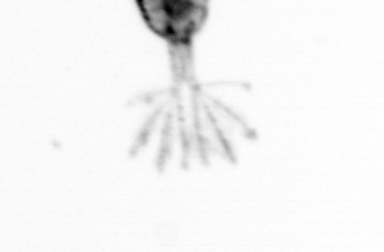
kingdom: Animalia
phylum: Arthropoda
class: Copepoda
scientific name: Copepoda
